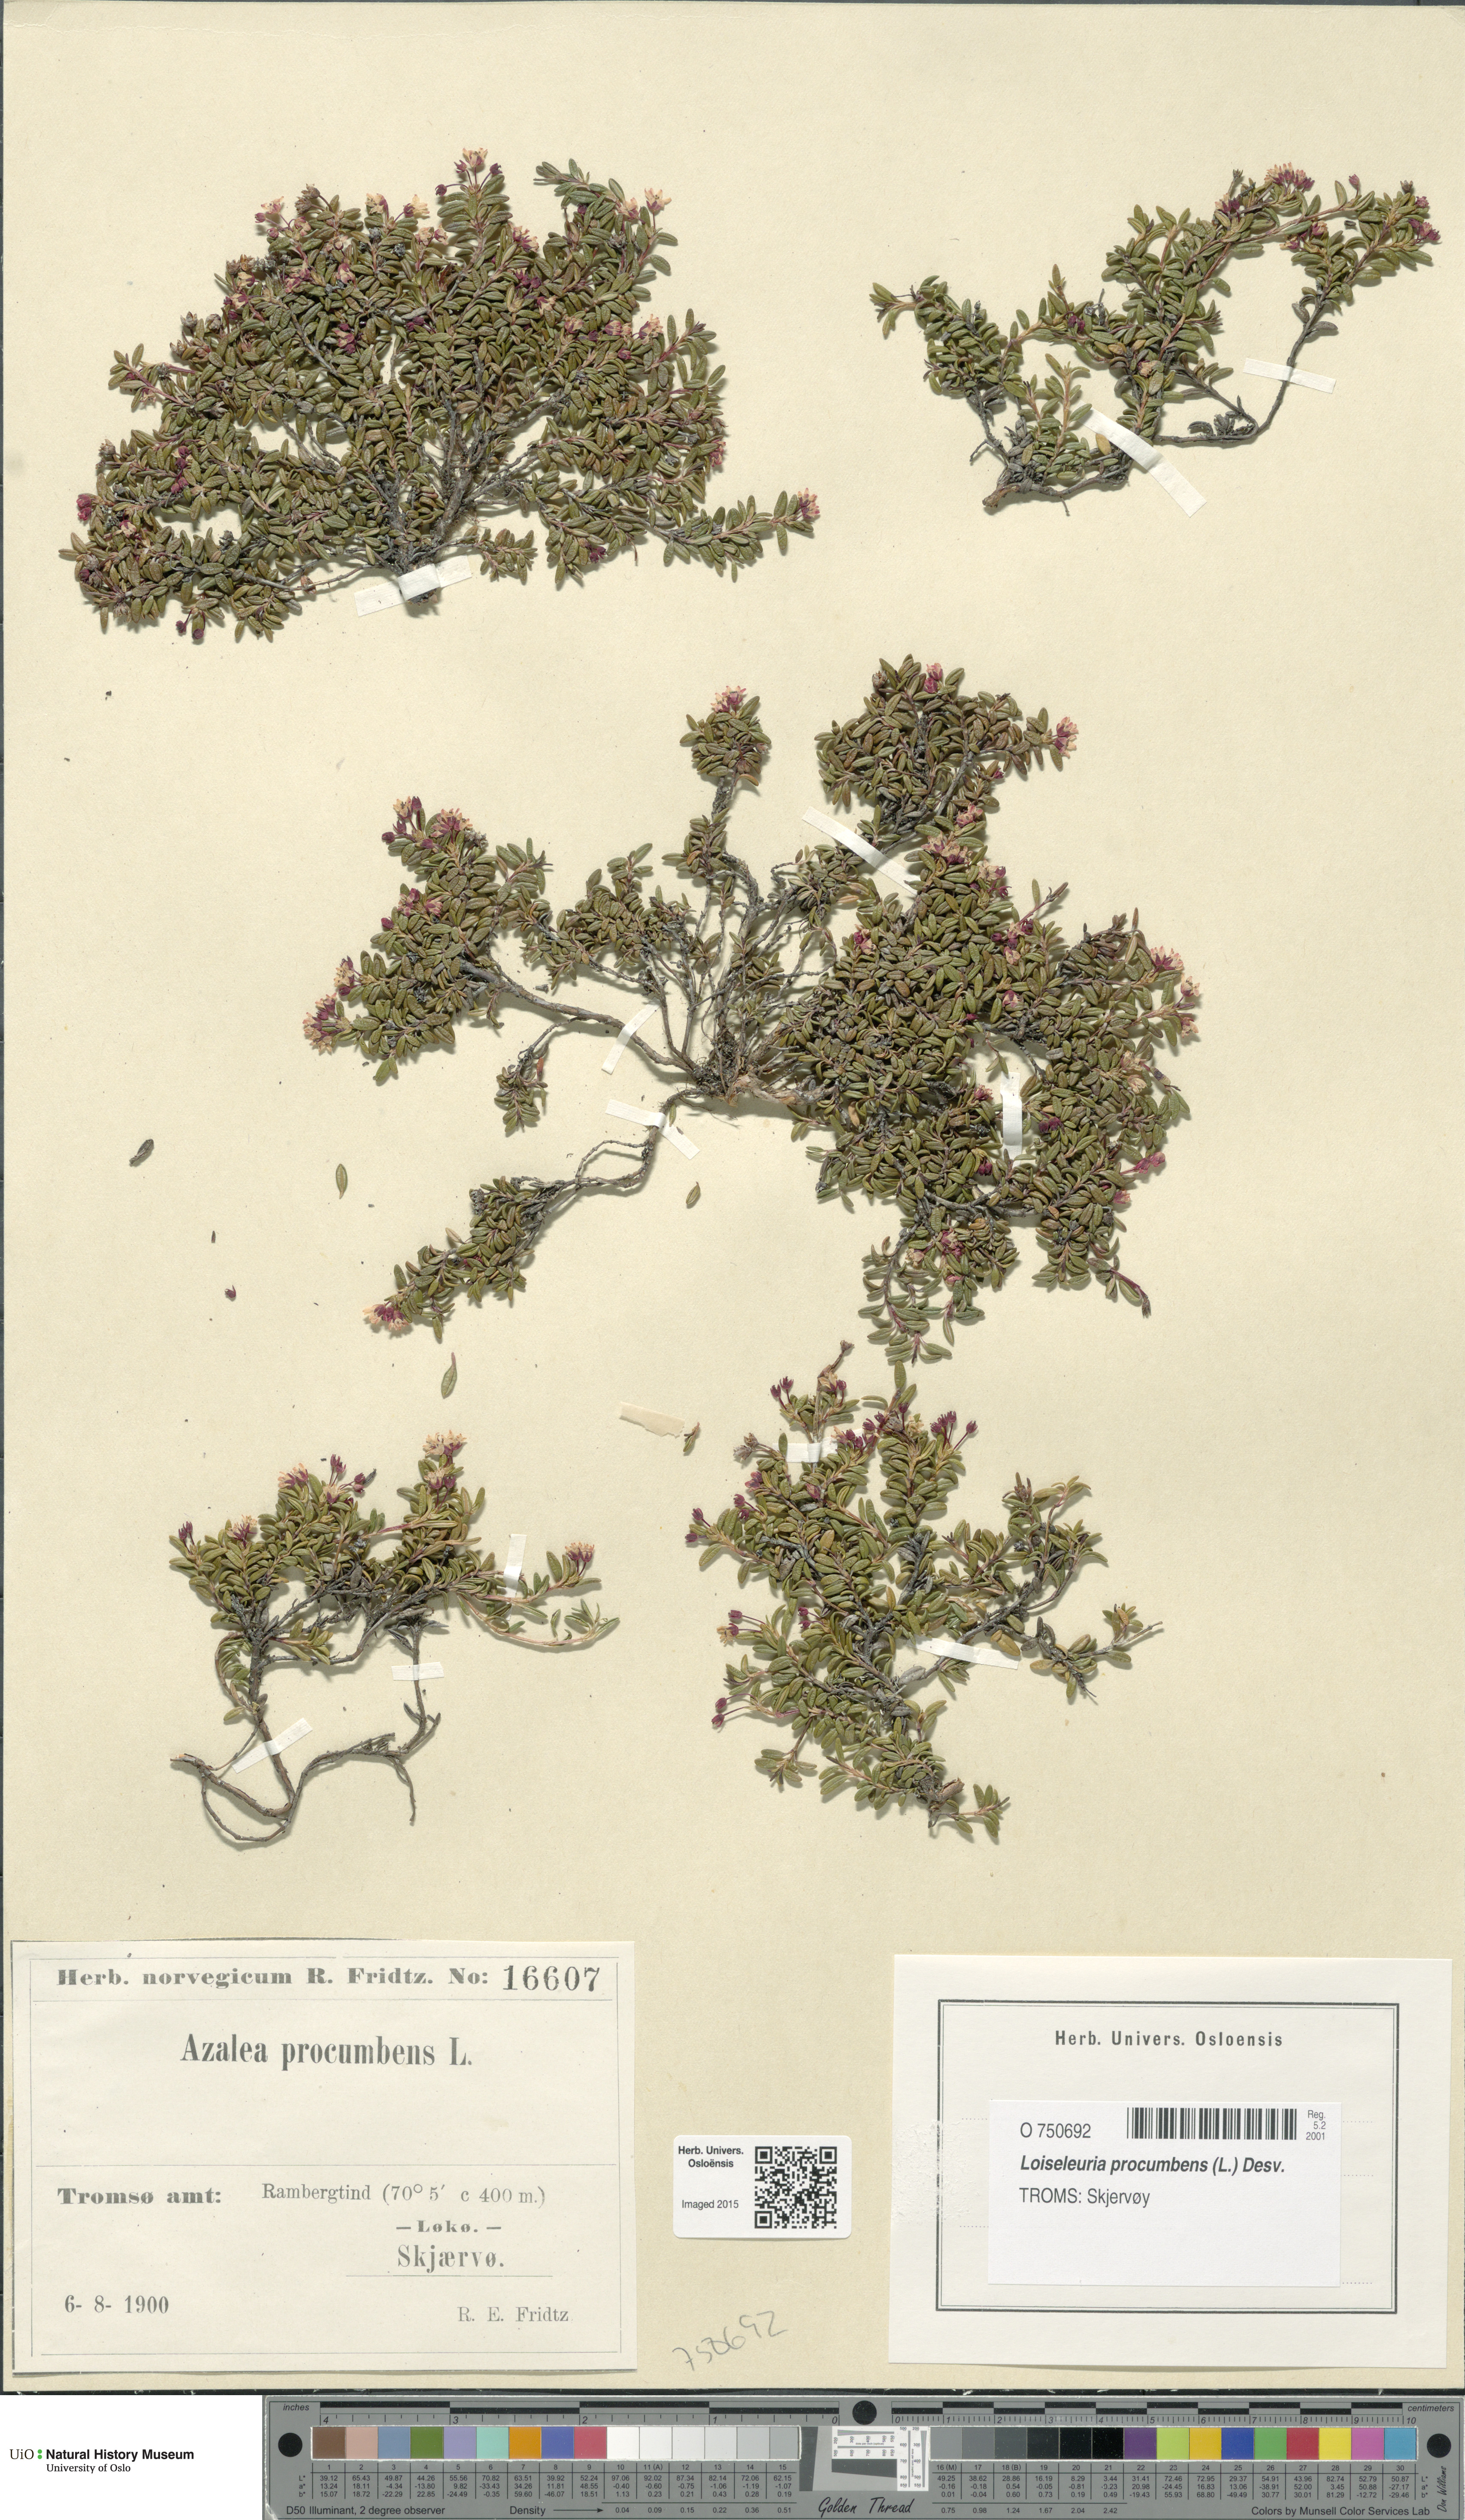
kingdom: Plantae
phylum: Tracheophyta
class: Magnoliopsida
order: Ericales
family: Ericaceae
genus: Kalmia
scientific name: Kalmia procumbens
